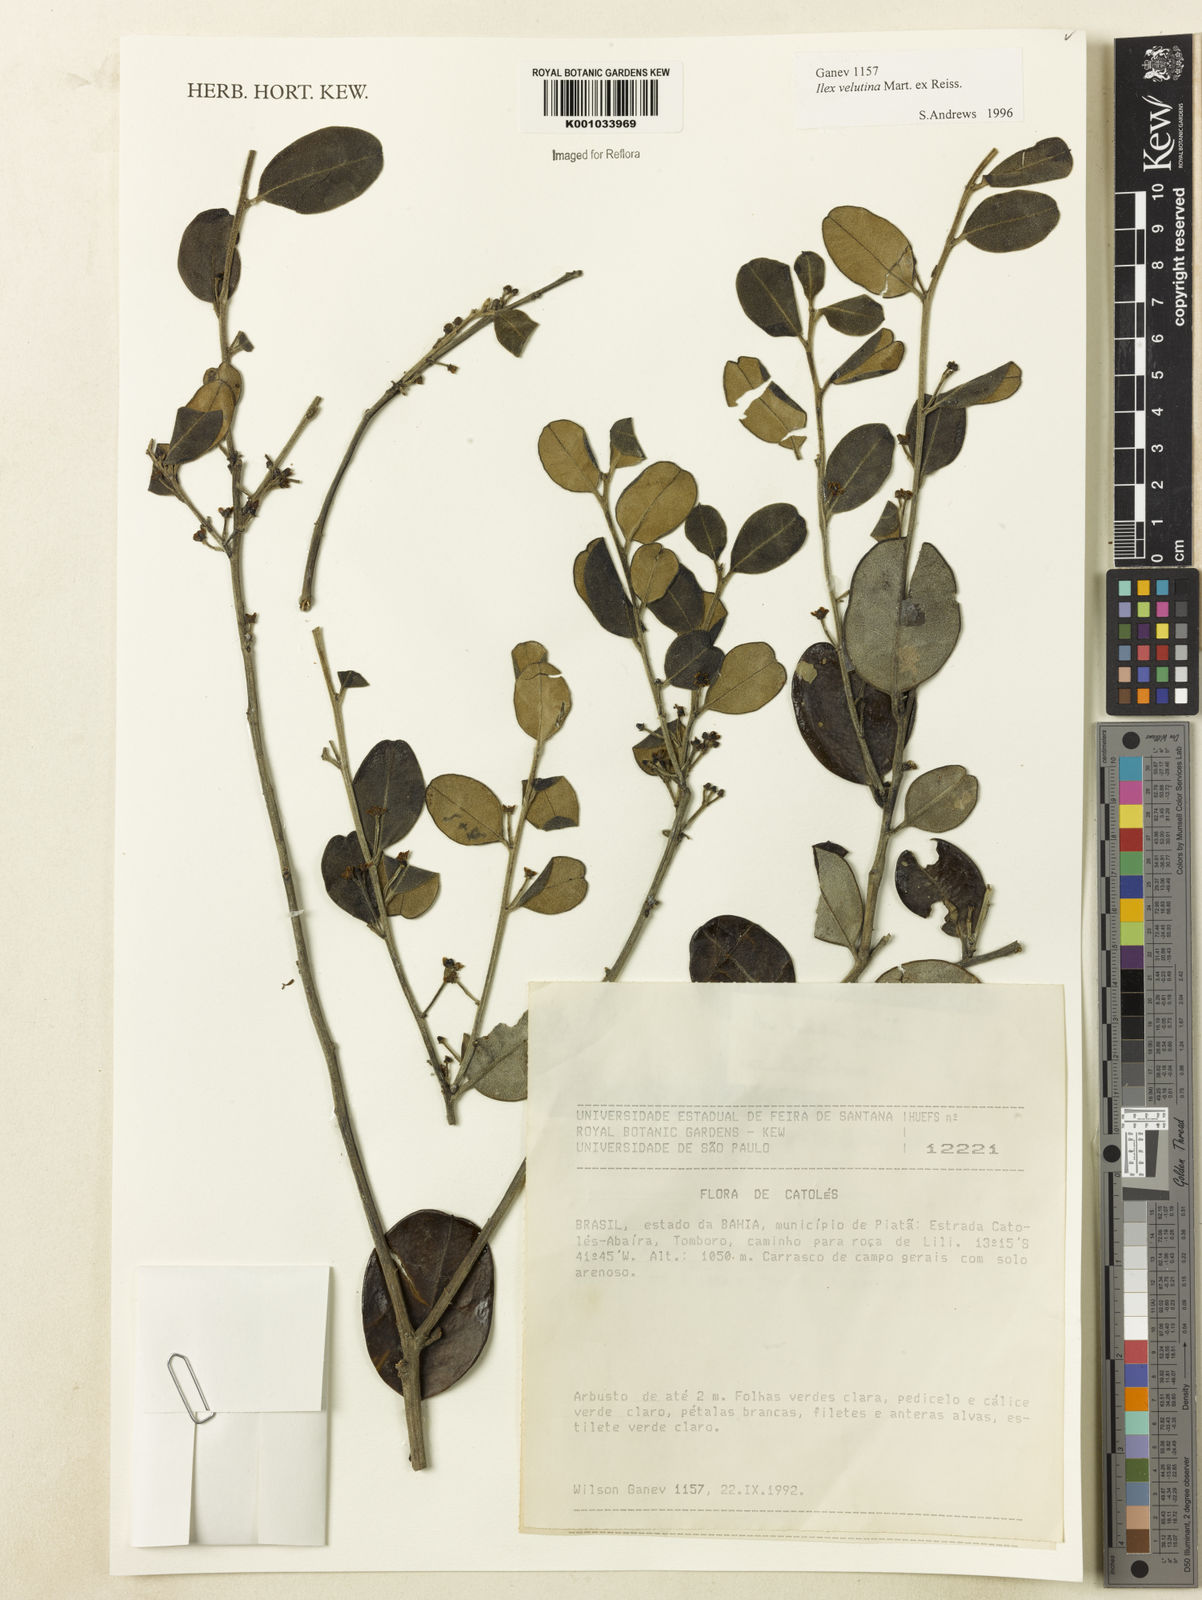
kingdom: Plantae
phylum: Tracheophyta
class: Magnoliopsida
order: Aquifoliales
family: Aquifoliaceae
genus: Ilex
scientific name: Ilex velutina
